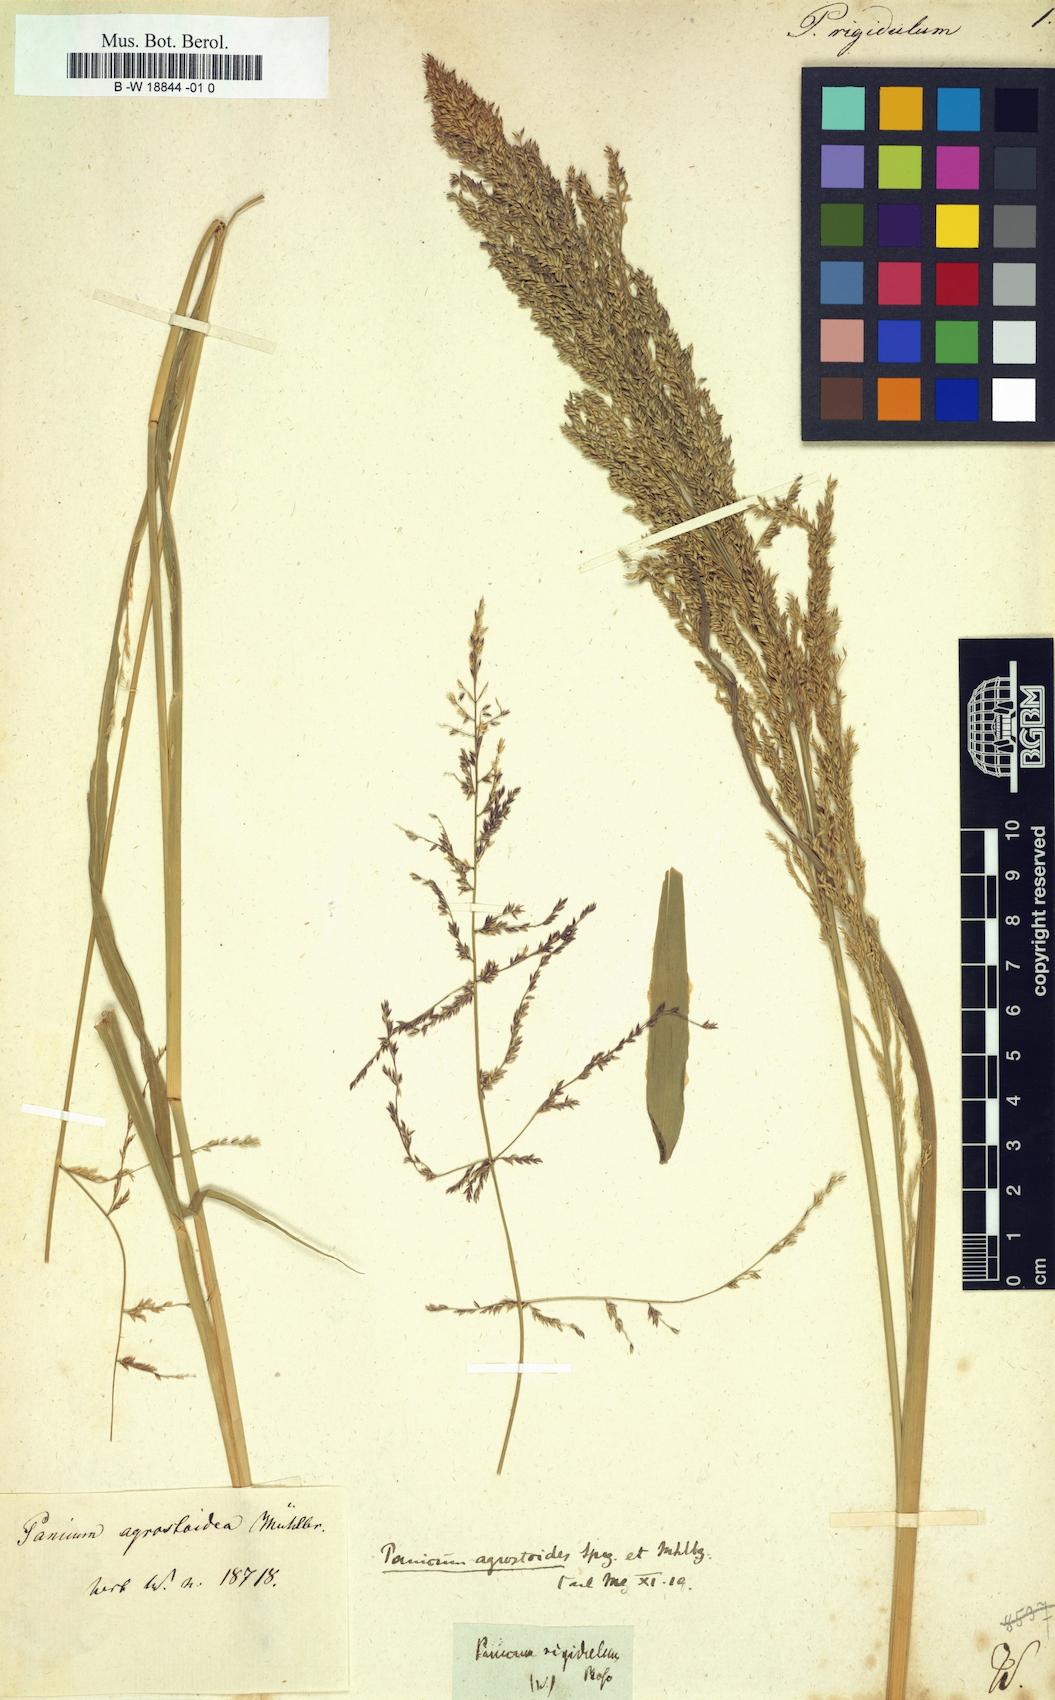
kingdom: Plantae
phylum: Tracheophyta
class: Liliopsida
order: Poales
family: Poaceae
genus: Coleataenia
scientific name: Coleataenia rigidula
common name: Redtop panicgrass
